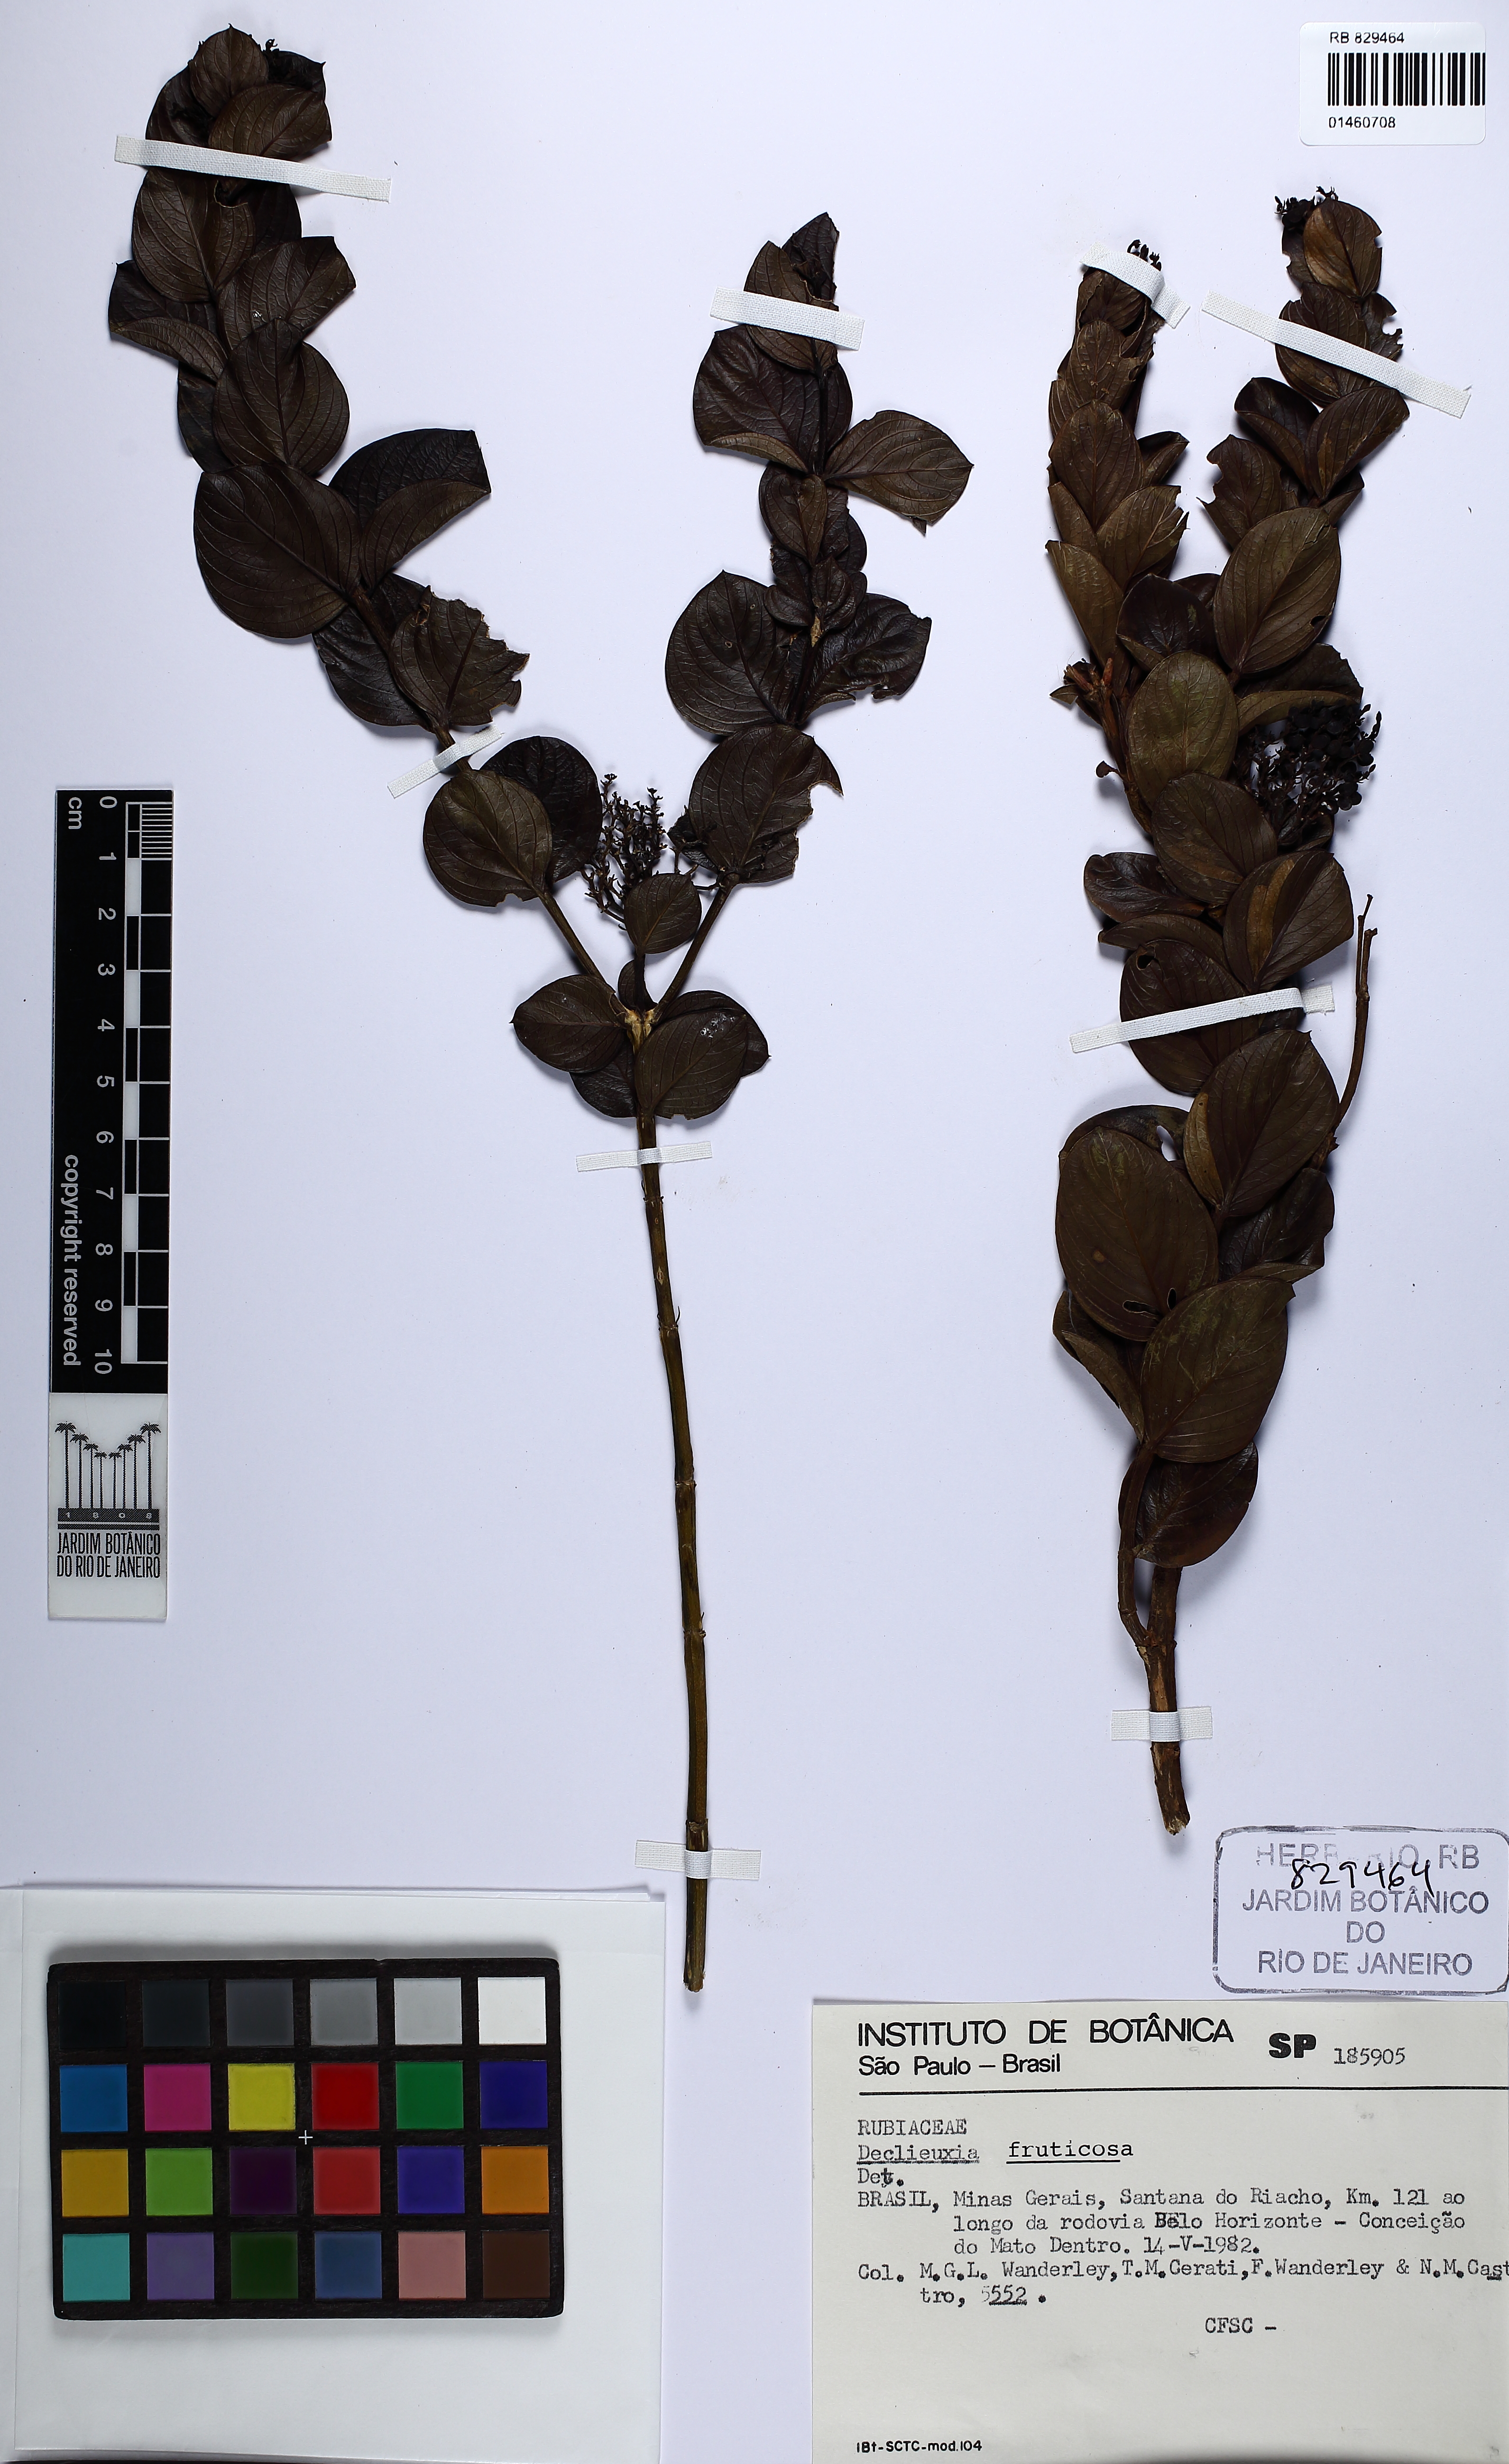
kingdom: Plantae
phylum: Tracheophyta
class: Magnoliopsida
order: Gentianales
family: Rubiaceae
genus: Declieuxia
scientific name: Declieuxia fruticosa
